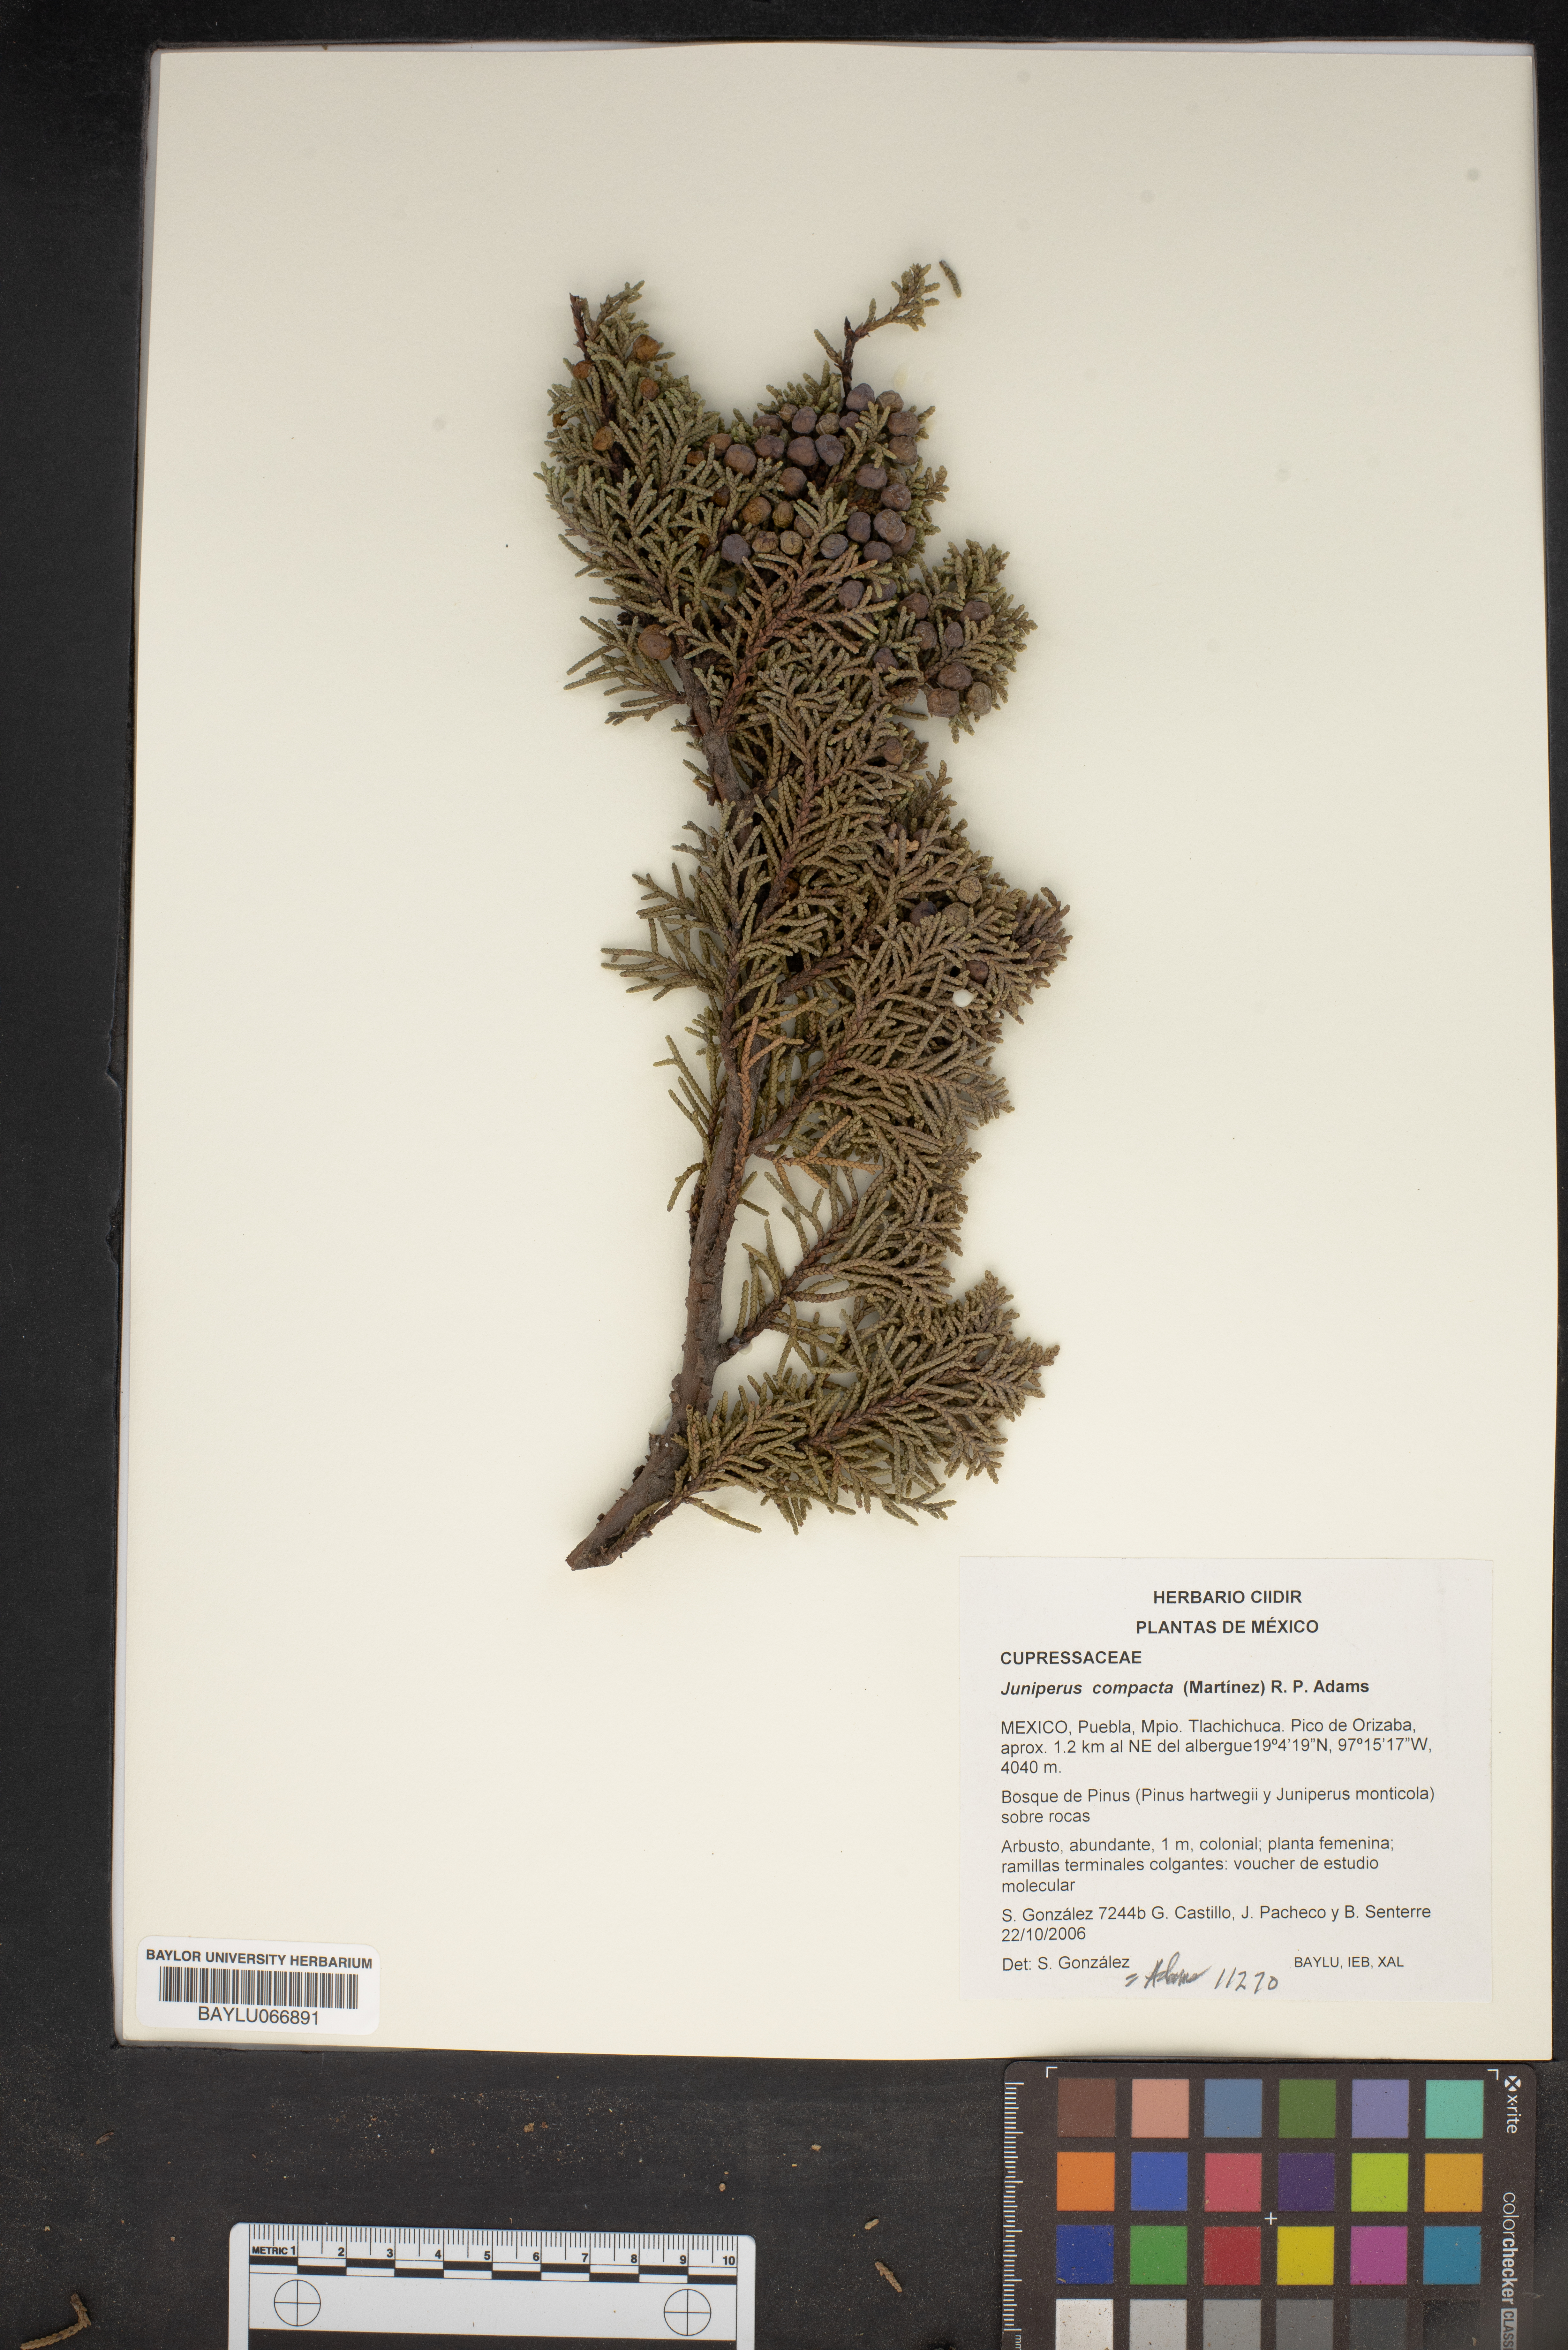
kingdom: Plantae
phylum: Tracheophyta
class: Pinopsida
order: Pinales
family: Cupressaceae
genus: Juniperus
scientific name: Juniperus monticola
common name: Mexican juniper
